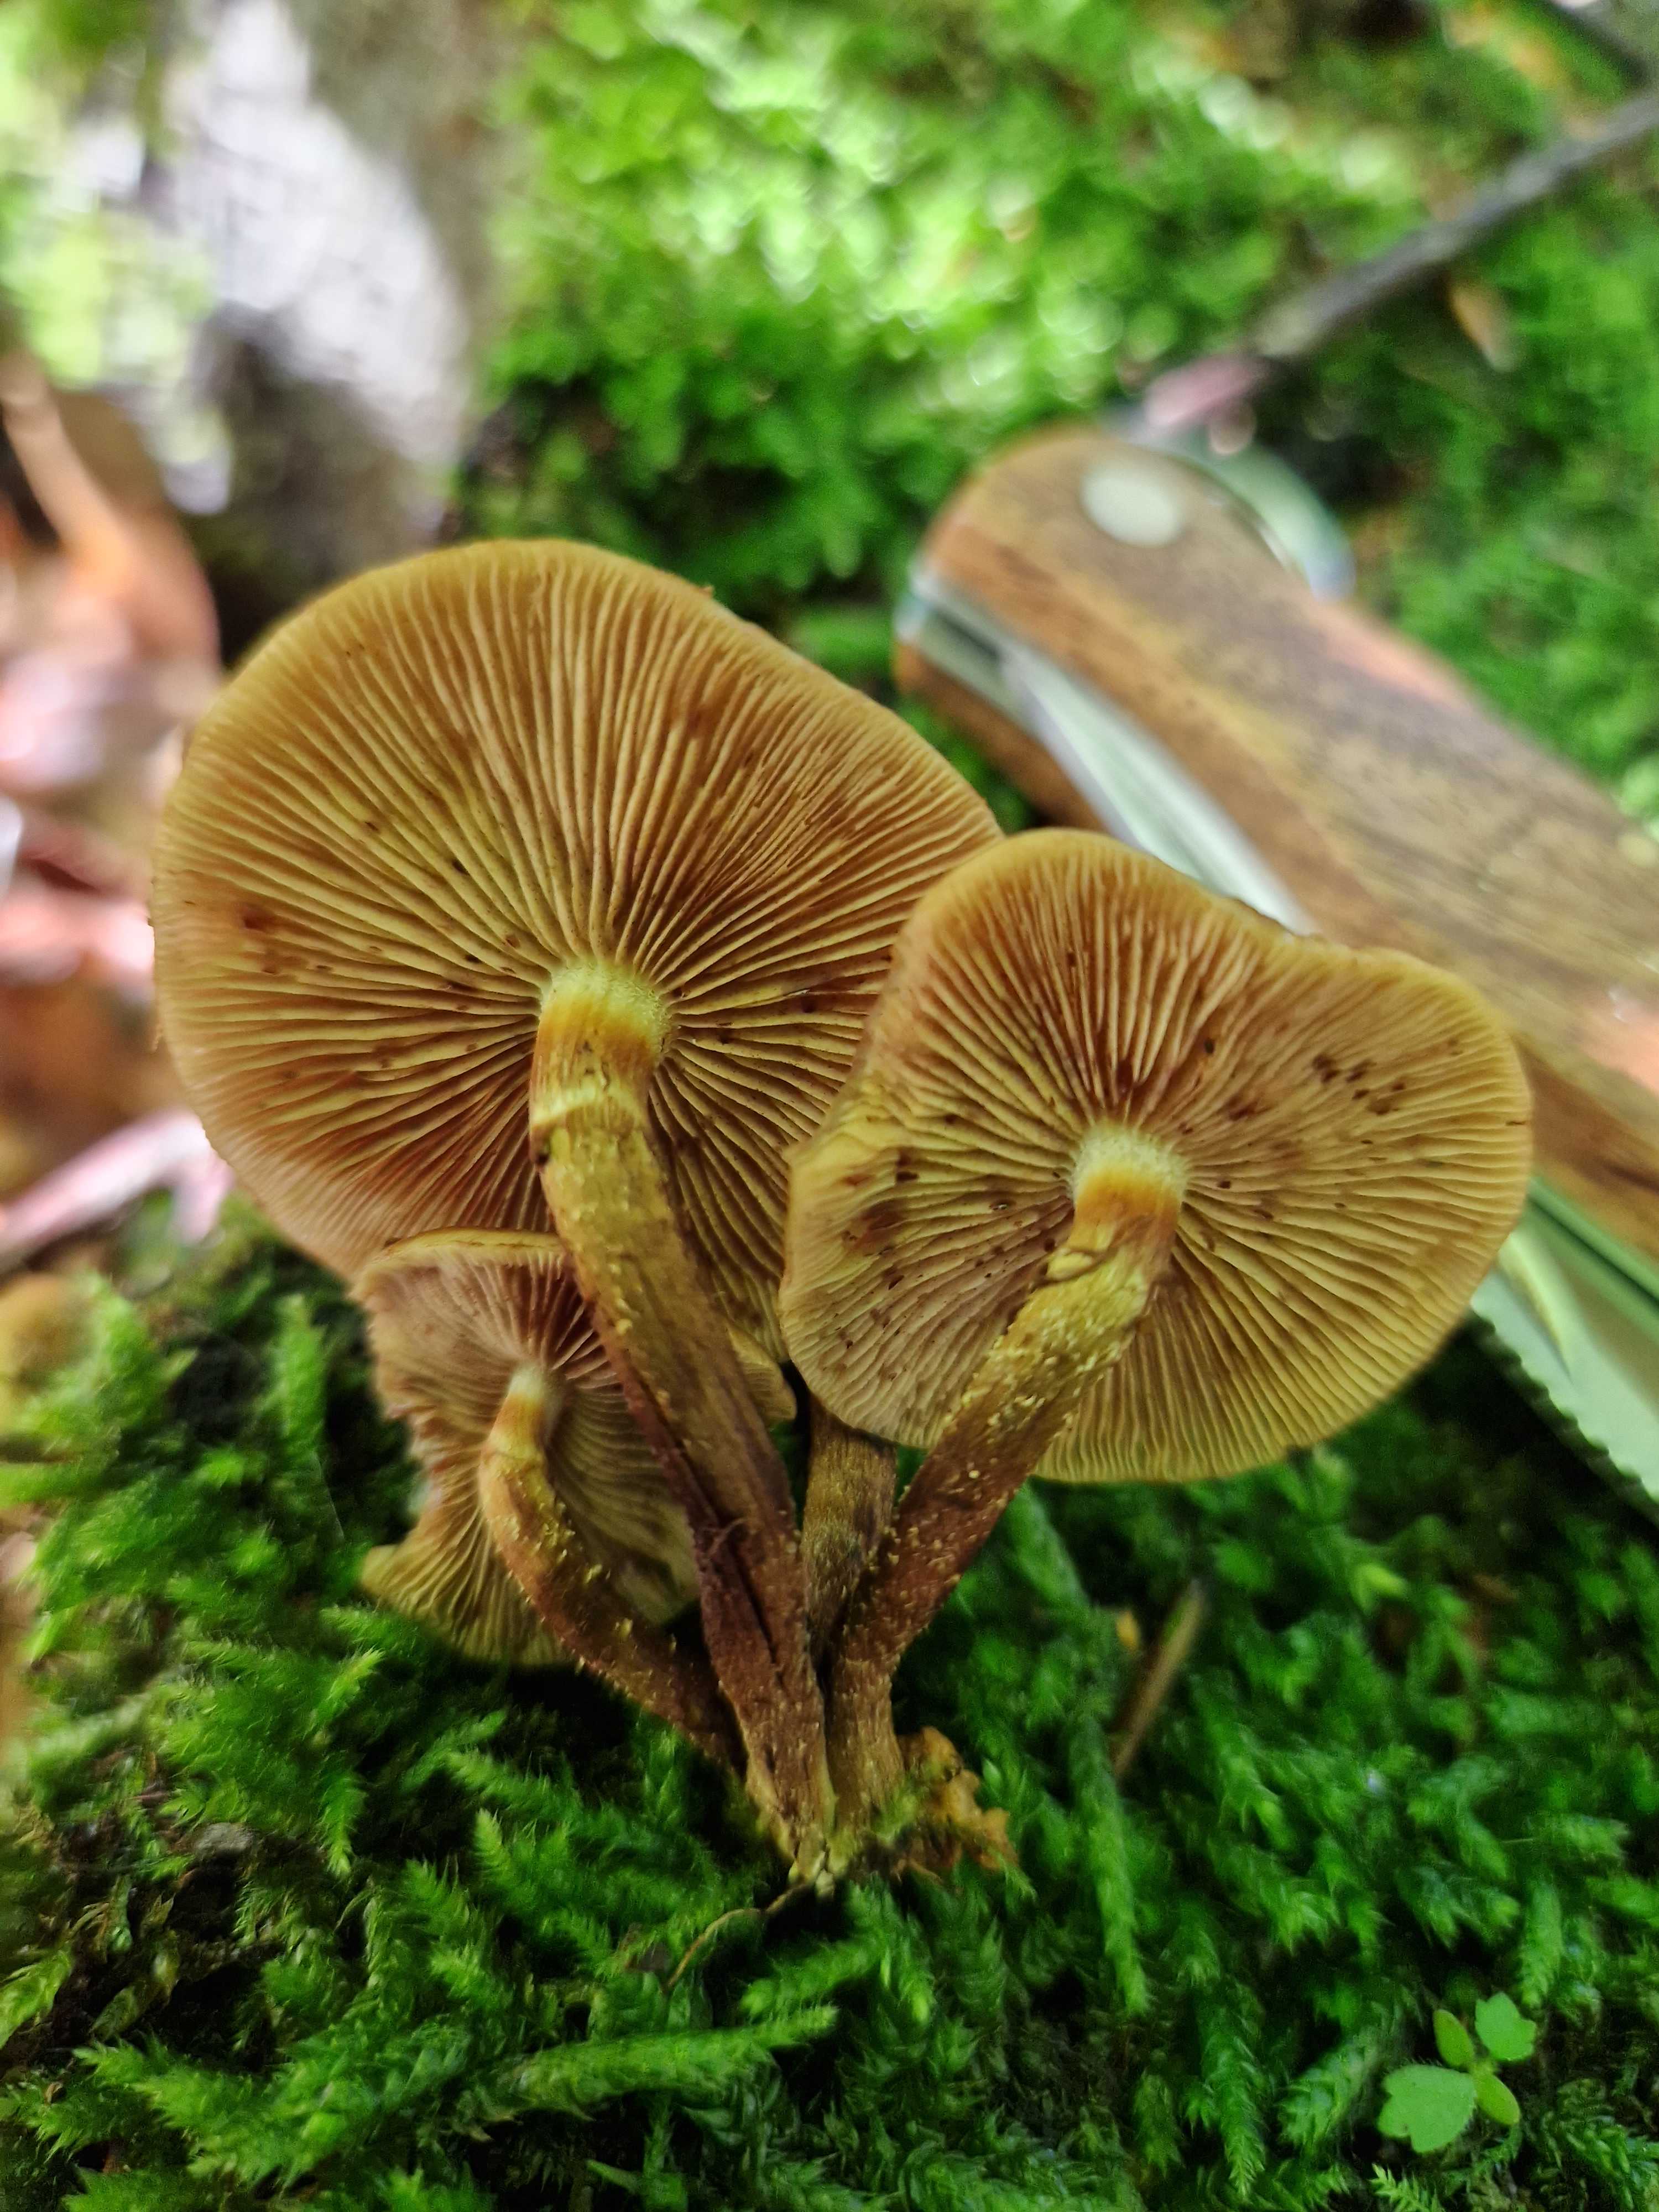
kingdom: Fungi
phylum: Basidiomycota
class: Agaricomycetes
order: Agaricales
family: Strophariaceae
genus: Kuehneromyces
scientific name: Kuehneromyces mutabilis
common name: foranderlig skælhat
